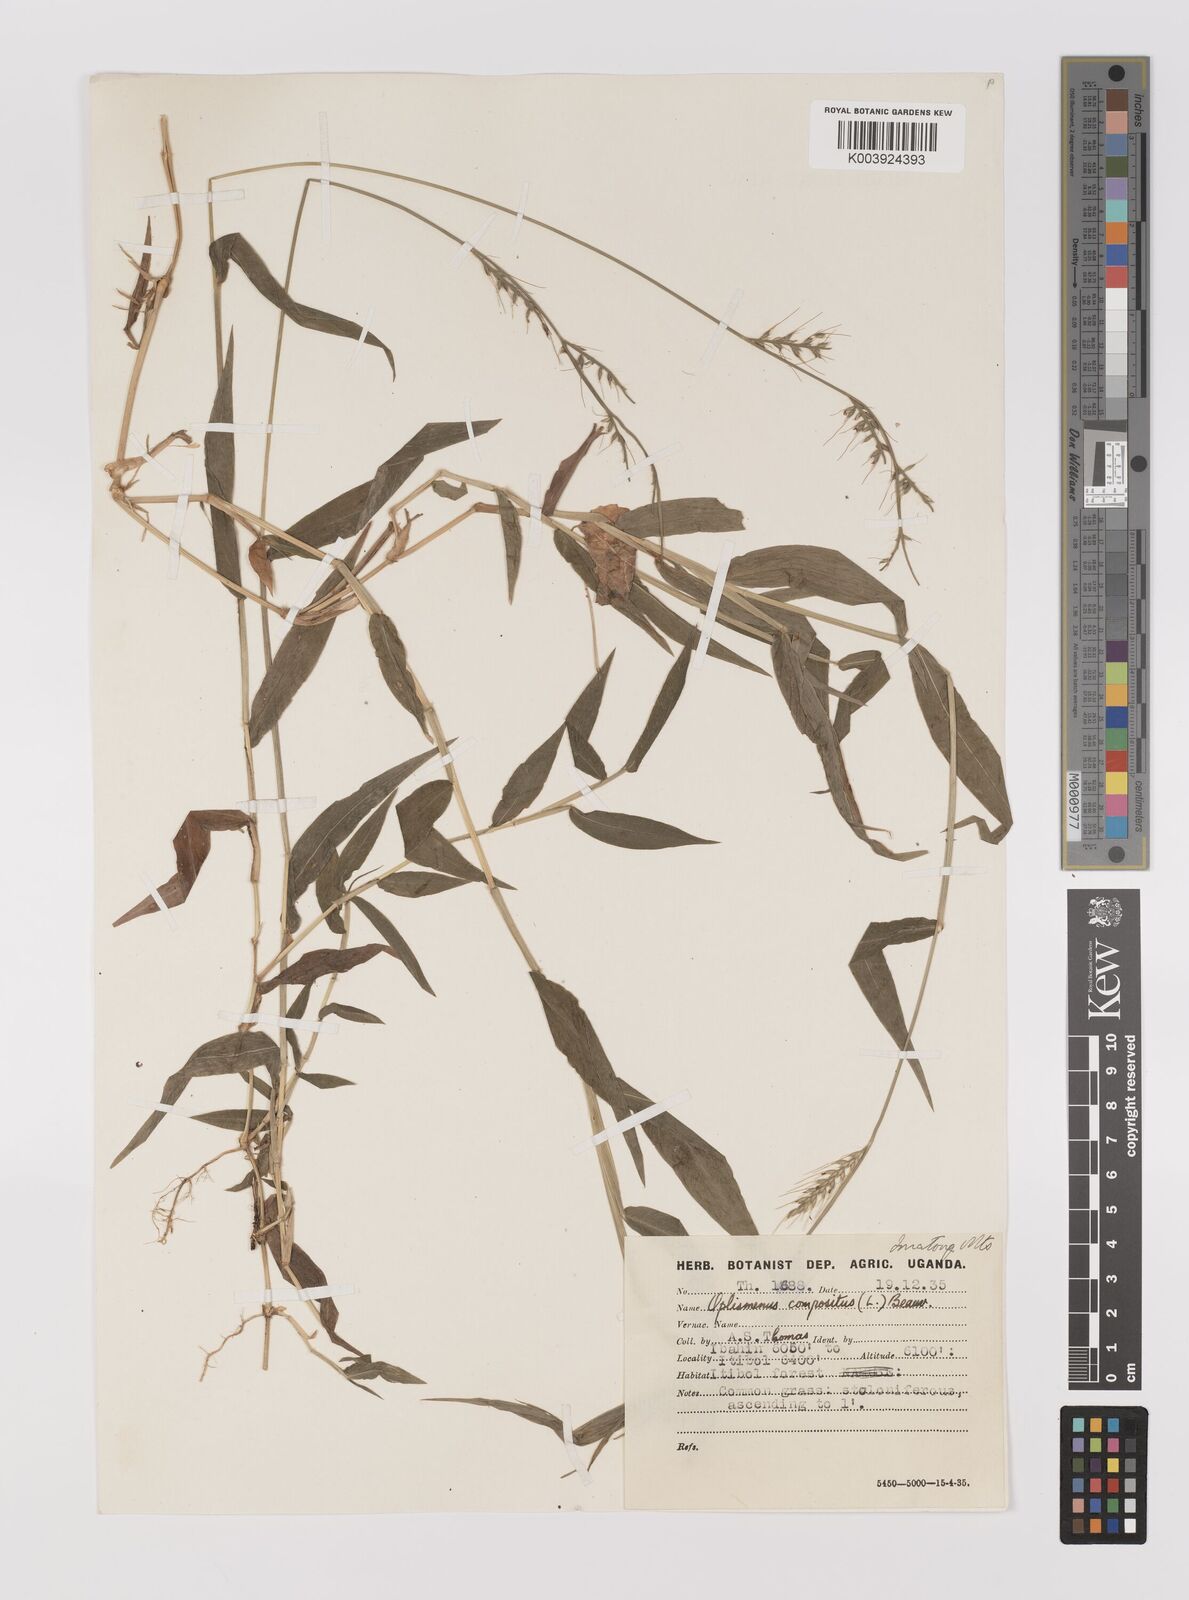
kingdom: Plantae
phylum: Tracheophyta
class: Liliopsida
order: Poales
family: Poaceae
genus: Oplismenus
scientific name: Oplismenus compositus
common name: Running mountain grass
